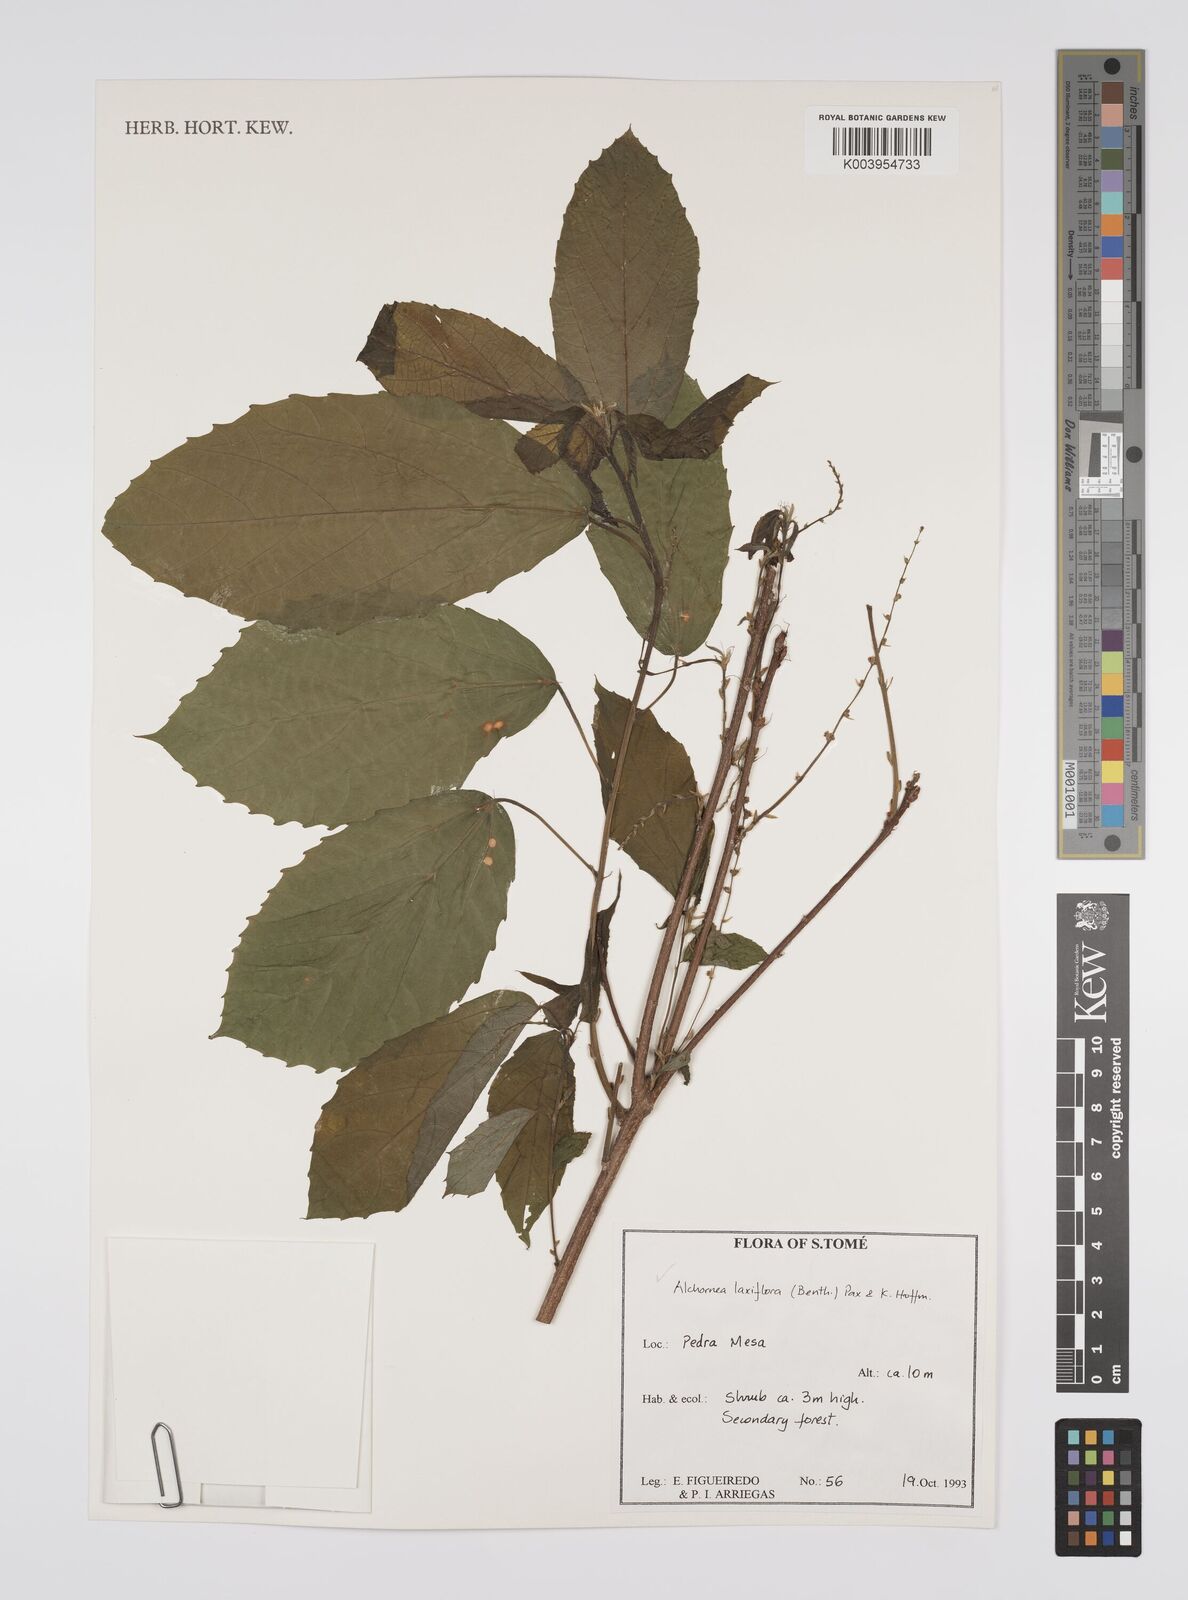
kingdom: Plantae
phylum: Tracheophyta
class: Magnoliopsida
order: Malpighiales
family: Euphorbiaceae
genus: Alchornea
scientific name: Alchornea laxiflora
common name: Lowveld bead-string
